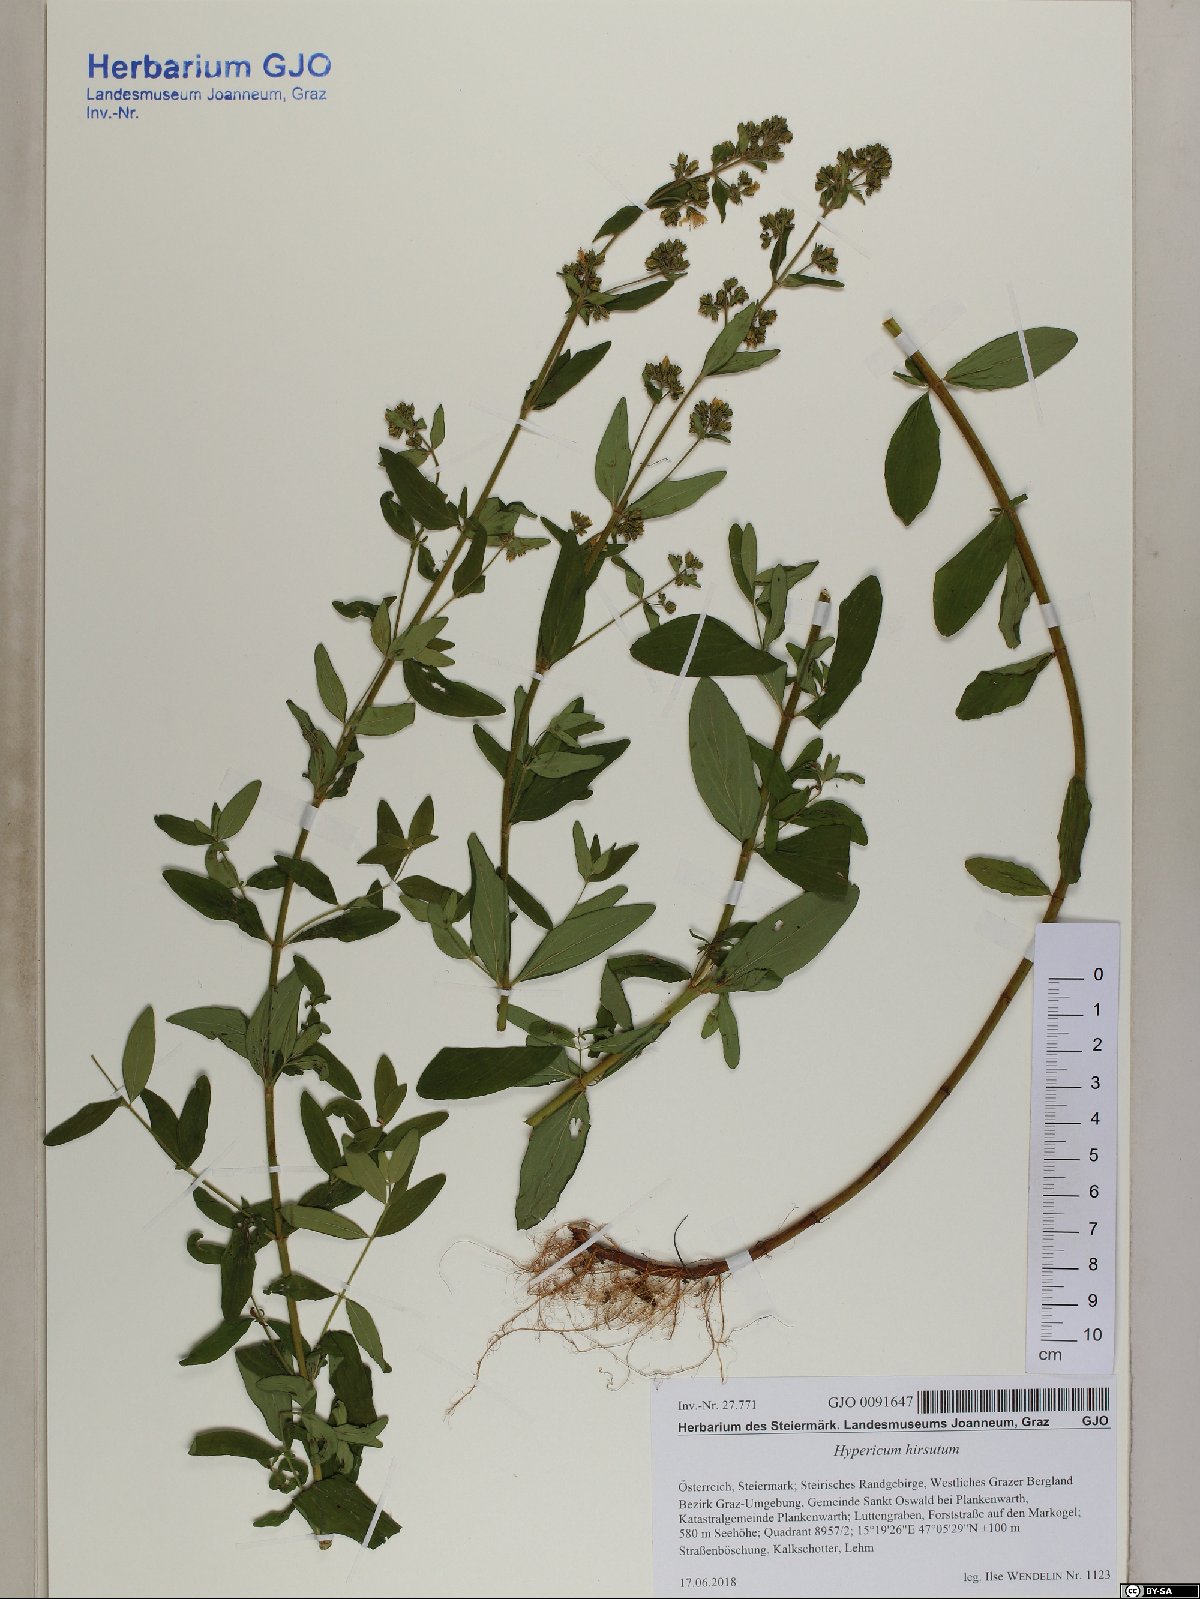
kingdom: Plantae
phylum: Tracheophyta
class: Magnoliopsida
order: Malpighiales
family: Hypericaceae
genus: Hypericum
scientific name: Hypericum hirsutum
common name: Hairy st. john's-wort
